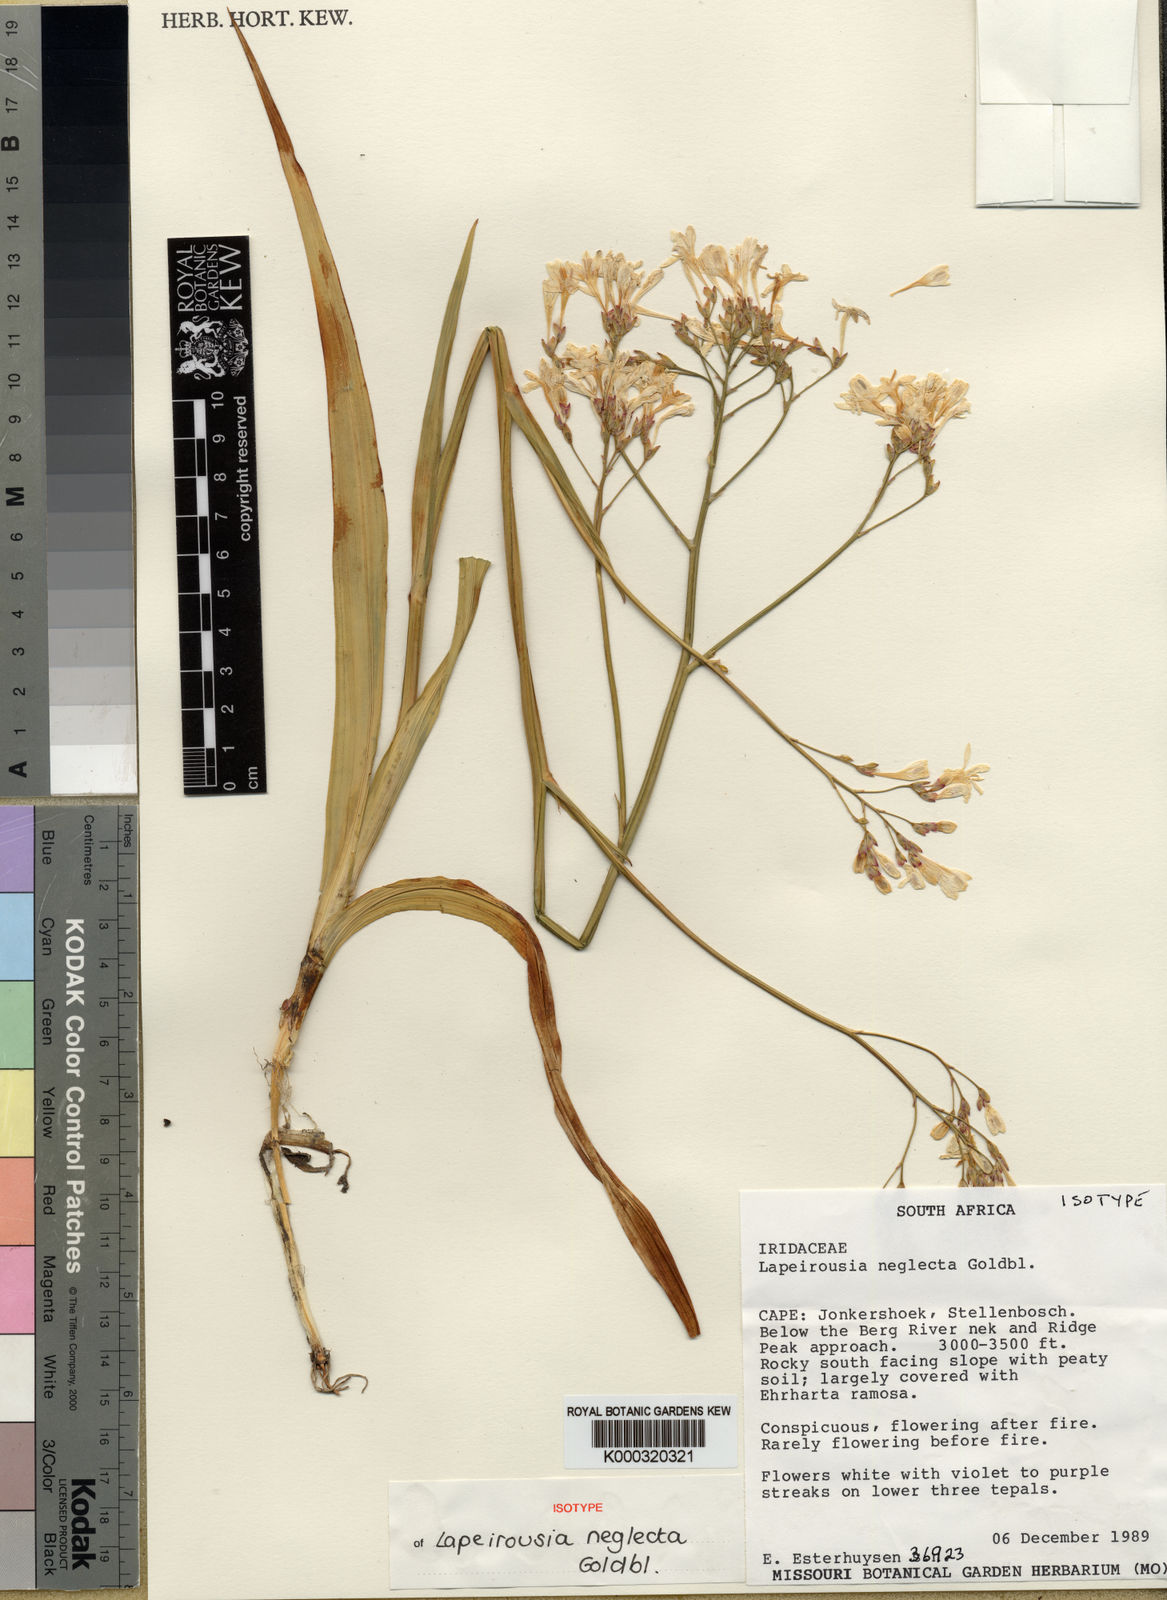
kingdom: Plantae
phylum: Tracheophyta
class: Liliopsida
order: Asparagales
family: Iridaceae
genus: Schizorhiza
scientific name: Schizorhiza neglecta
